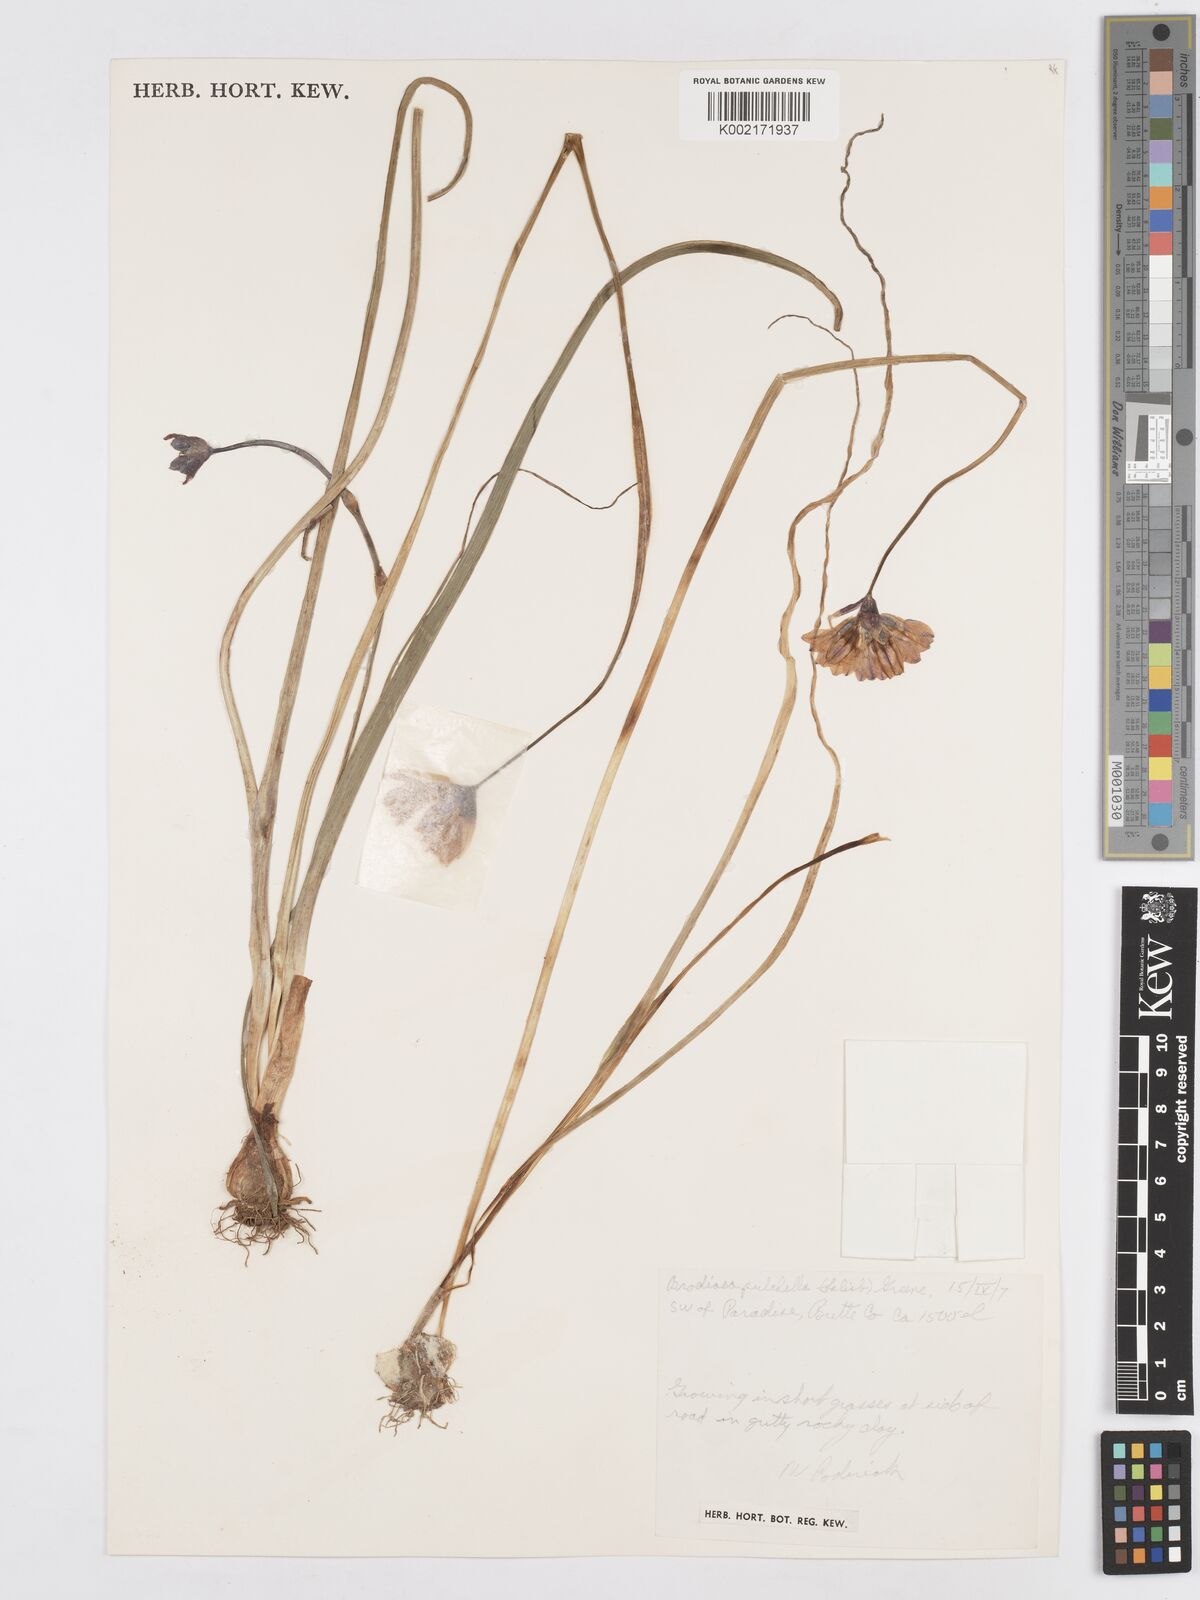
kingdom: Plantae
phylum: Tracheophyta
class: Liliopsida
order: Asparagales
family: Asparagaceae
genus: Dichelostemma
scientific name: Dichelostemma congestum
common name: Fork-tooth ookow
